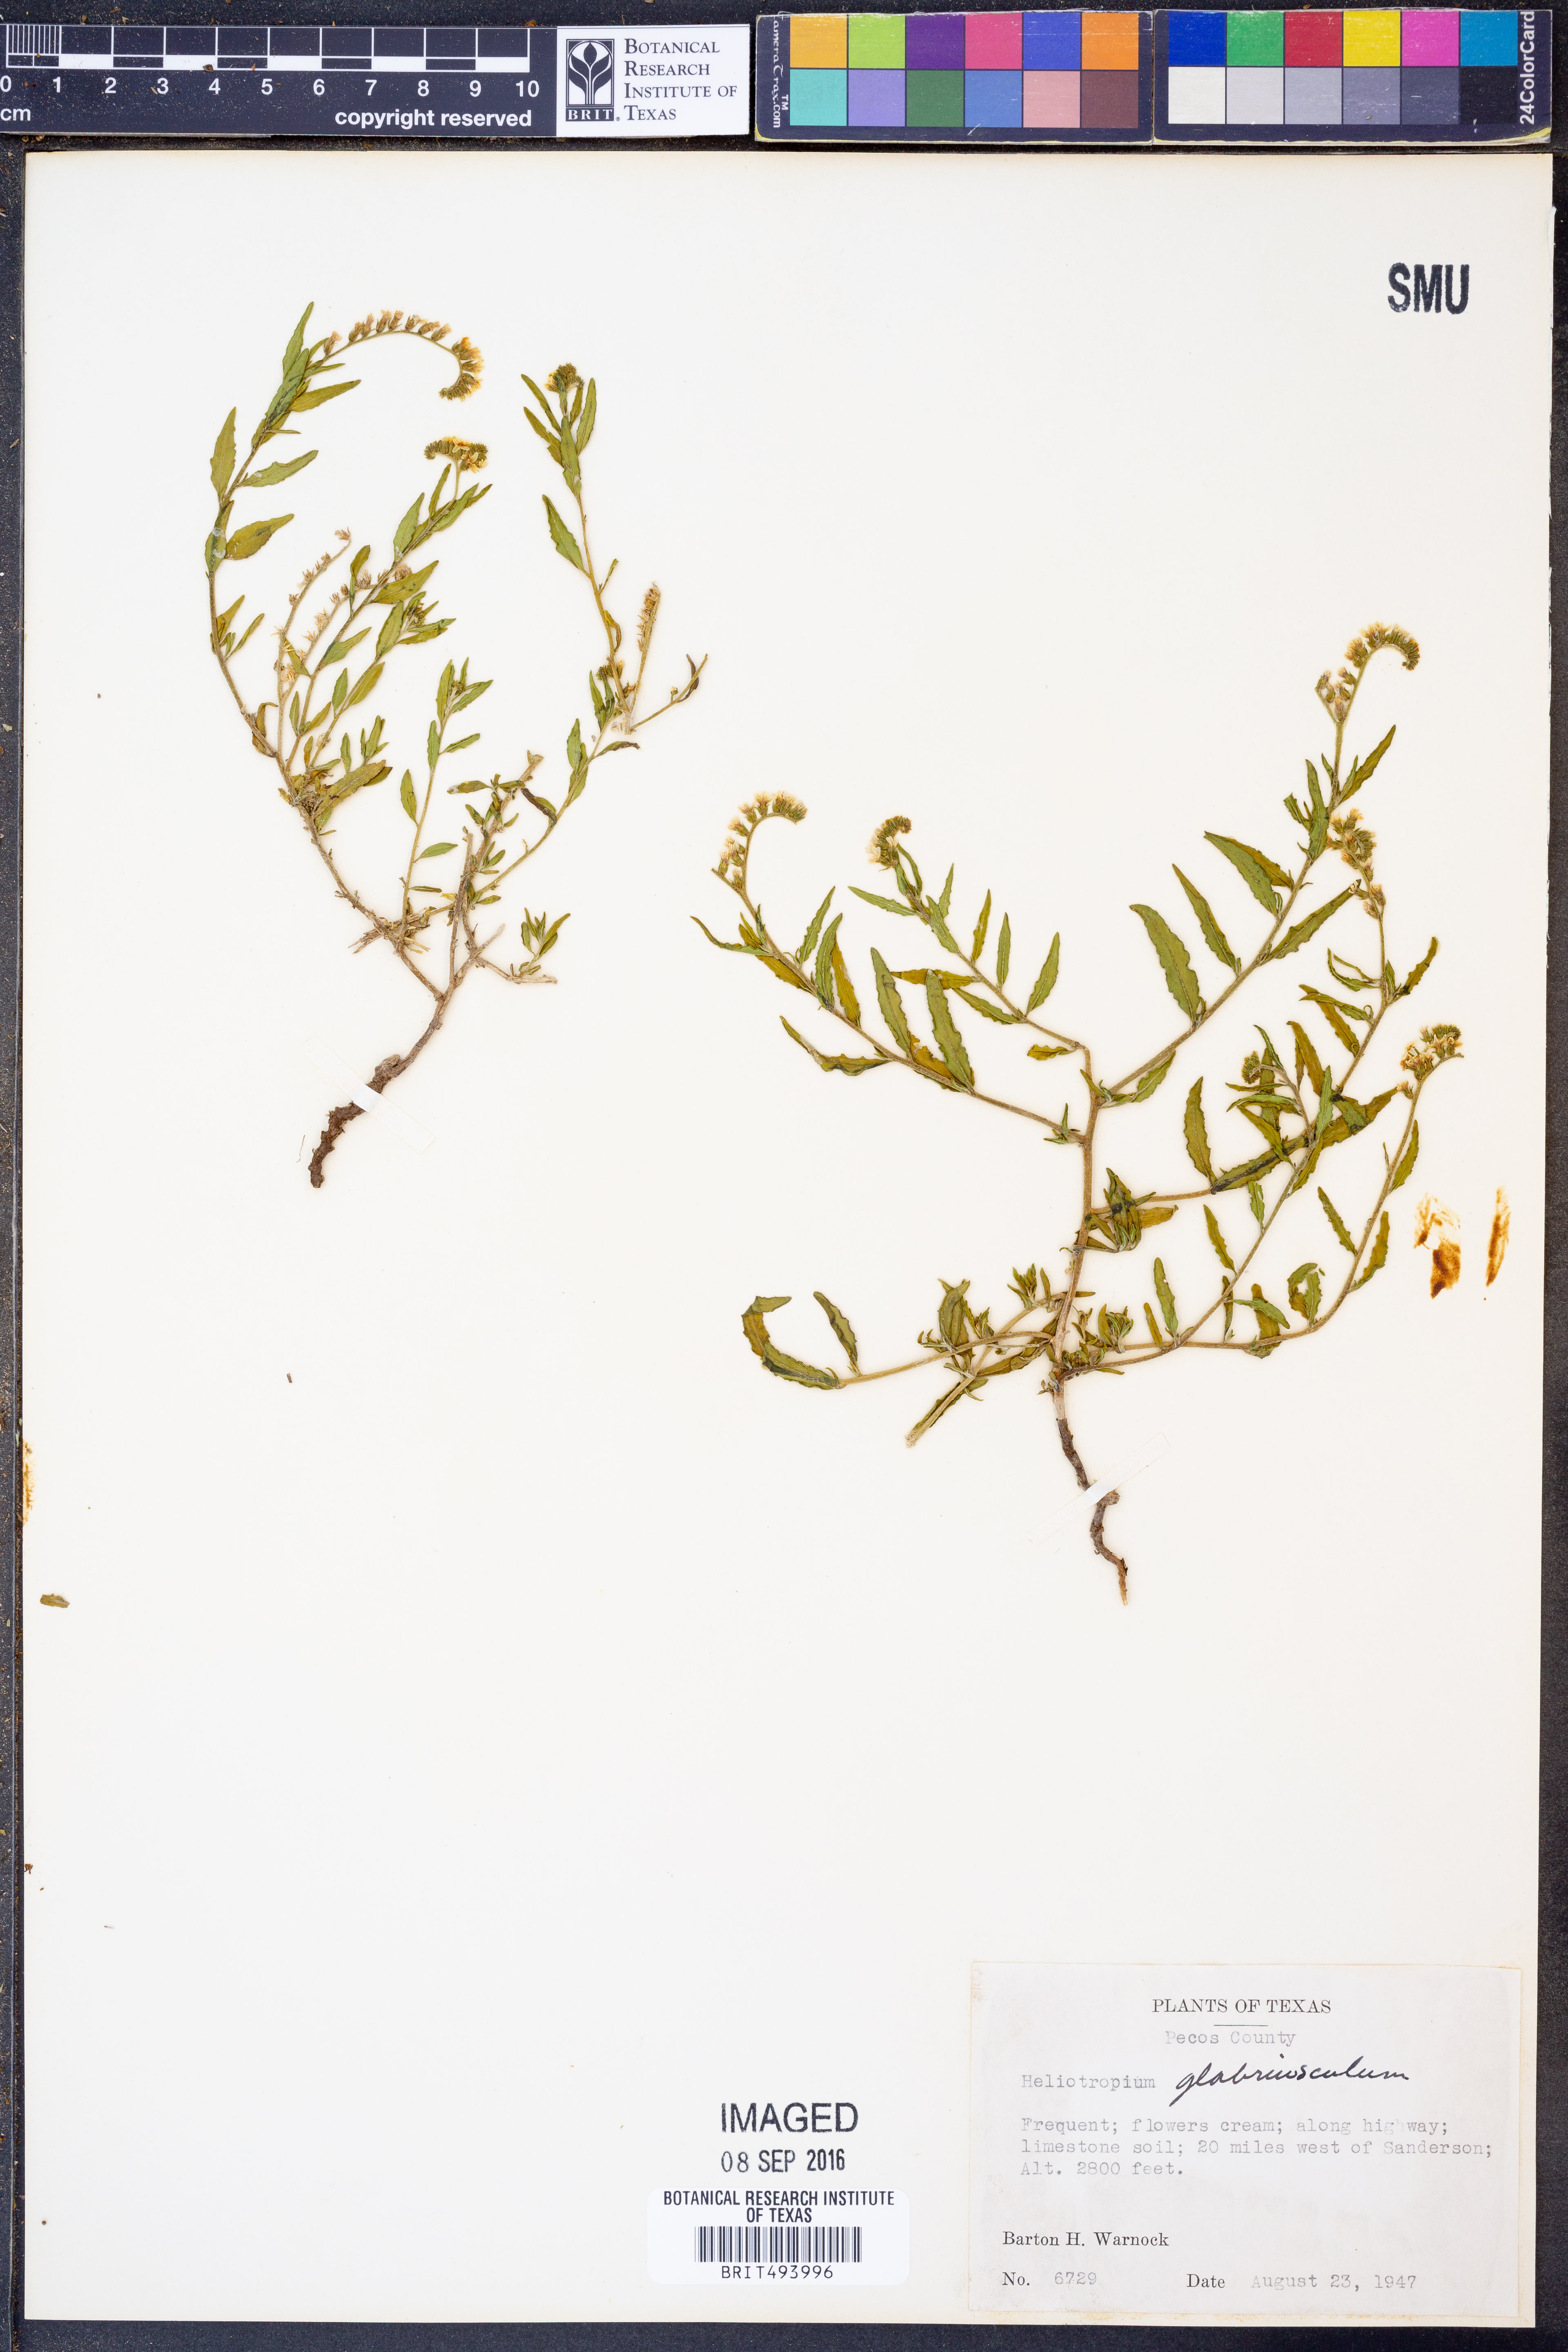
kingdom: Plantae
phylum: Tracheophyta
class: Magnoliopsida
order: Boraginales
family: Heliotropiaceae
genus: Heliotropium
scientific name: Heliotropium glabriusculum
